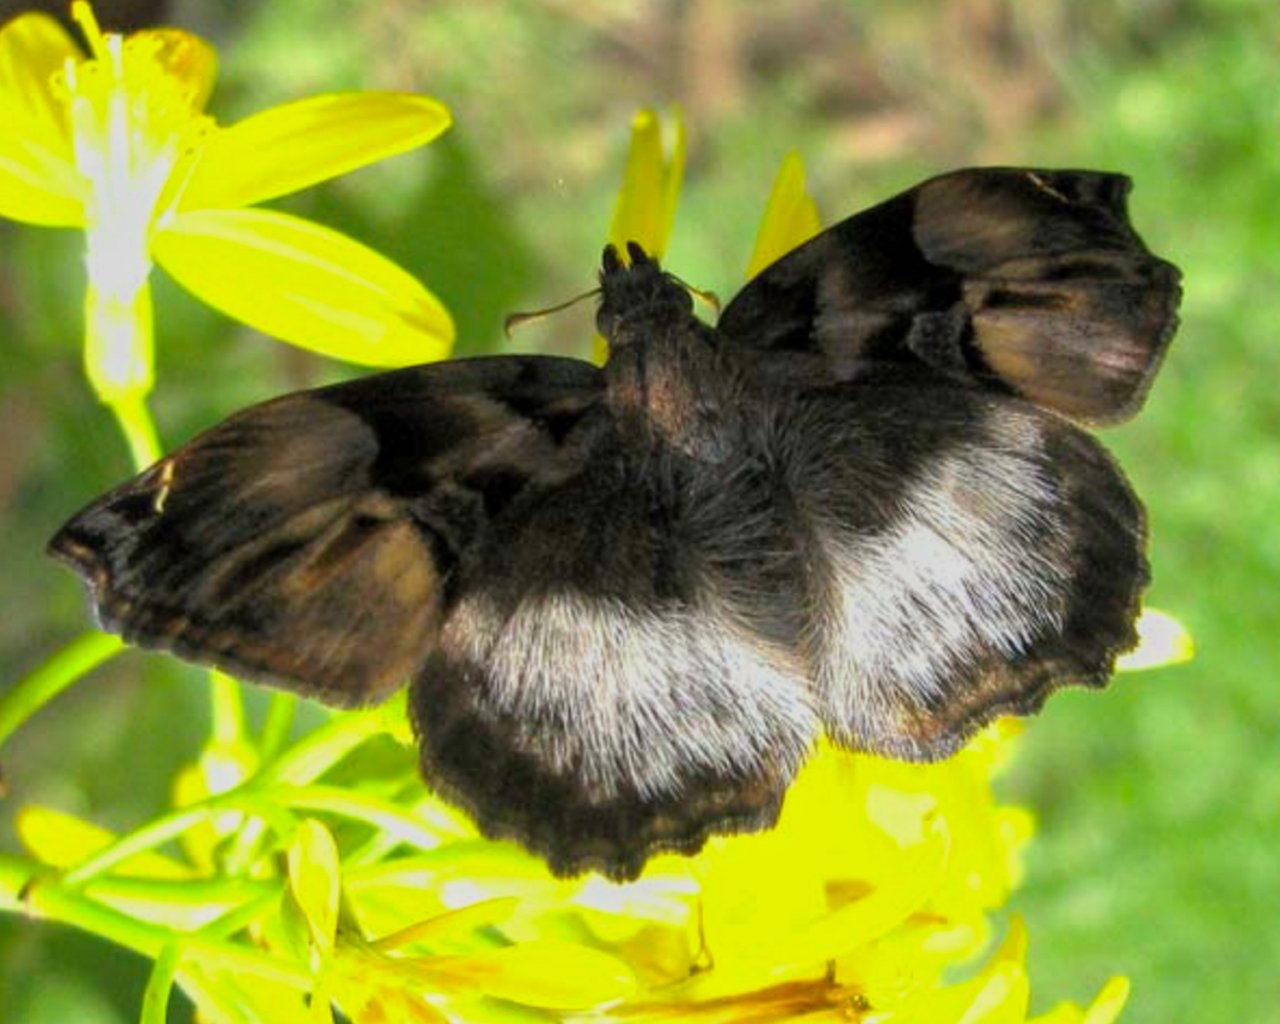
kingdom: Animalia
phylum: Arthropoda
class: Insecta
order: Lepidoptera
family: Hesperiidae
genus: Noctuana
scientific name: Noctuana lactifera
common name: Cryptic Skipper
